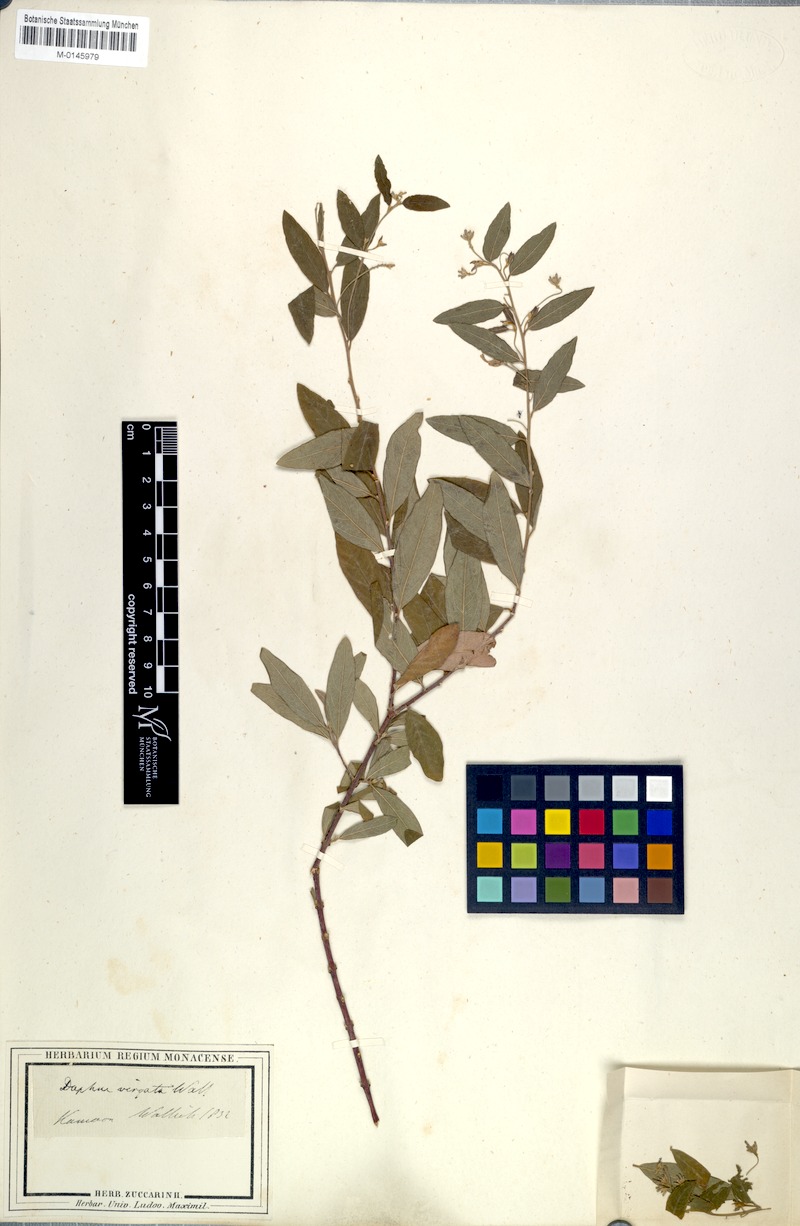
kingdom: Plantae
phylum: Tracheophyta
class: Magnoliopsida
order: Malvales
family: Thymelaeaceae
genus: Wikstroemia
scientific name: Wikstroemia canescens
